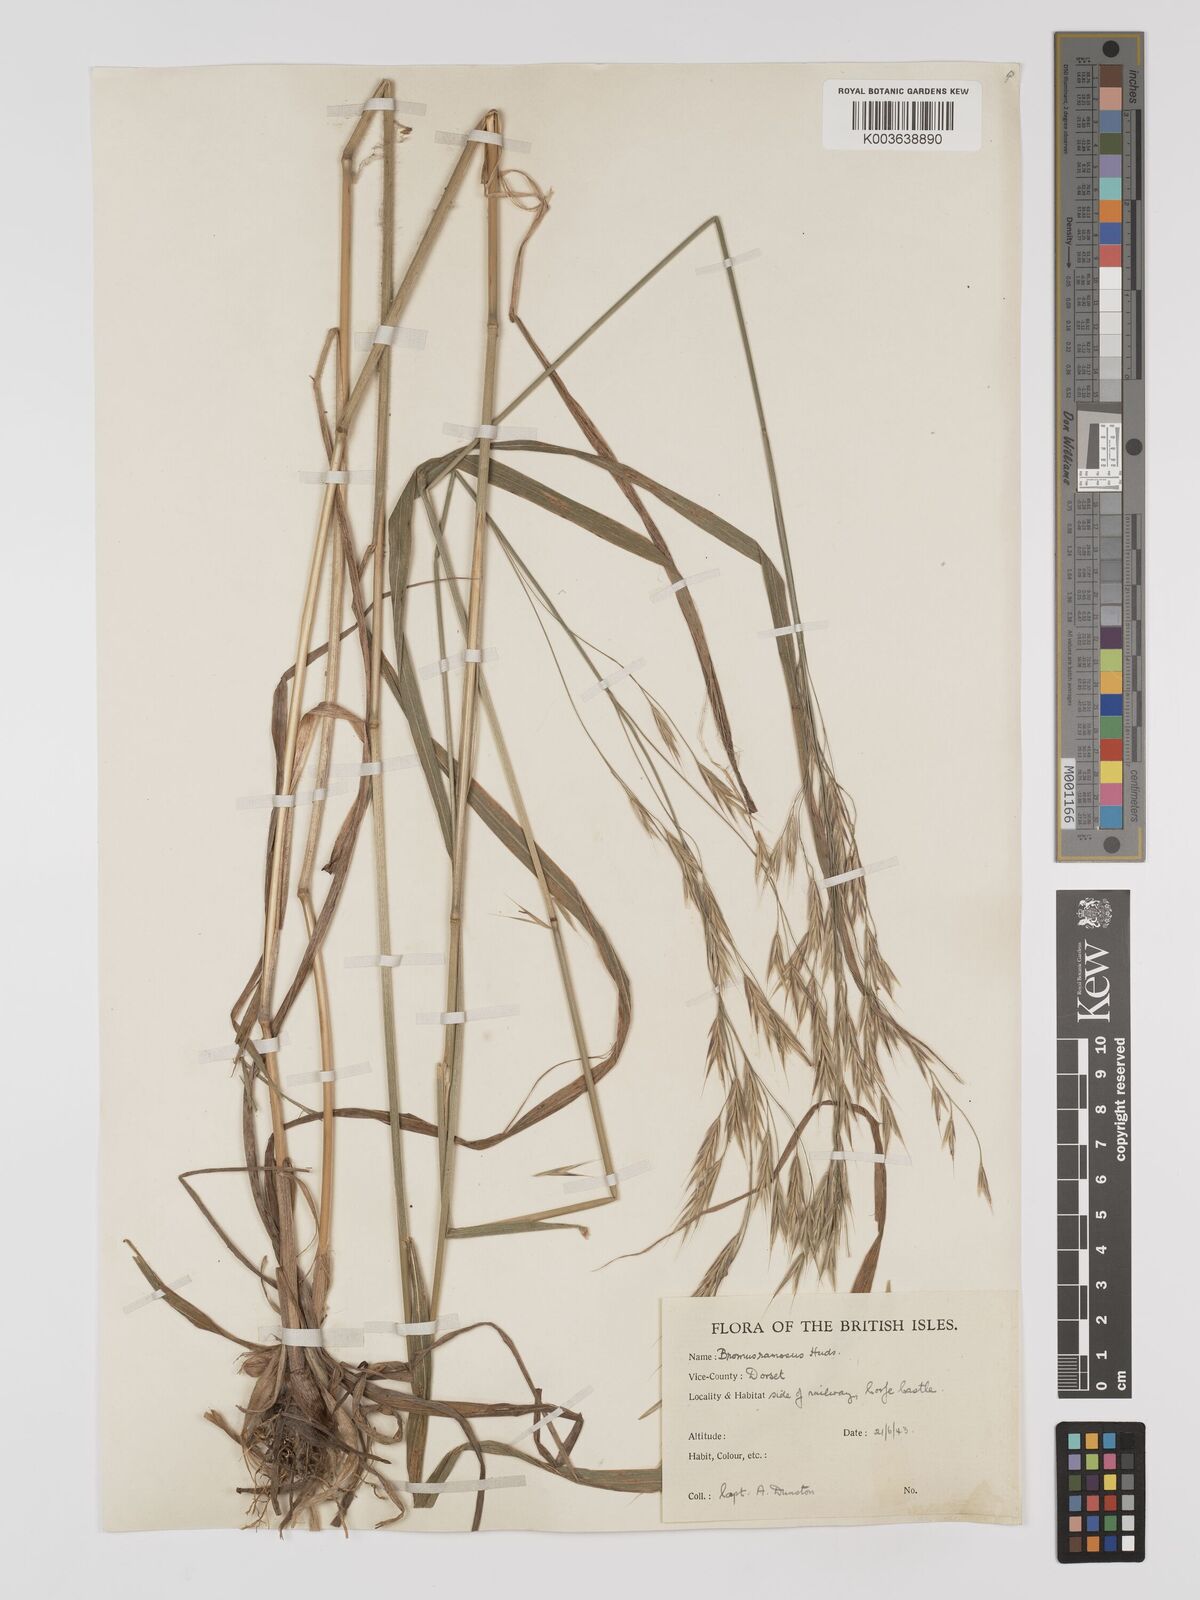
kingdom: Plantae
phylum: Tracheophyta
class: Liliopsida
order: Poales
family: Poaceae
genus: Brachypodium
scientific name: Brachypodium retusum
